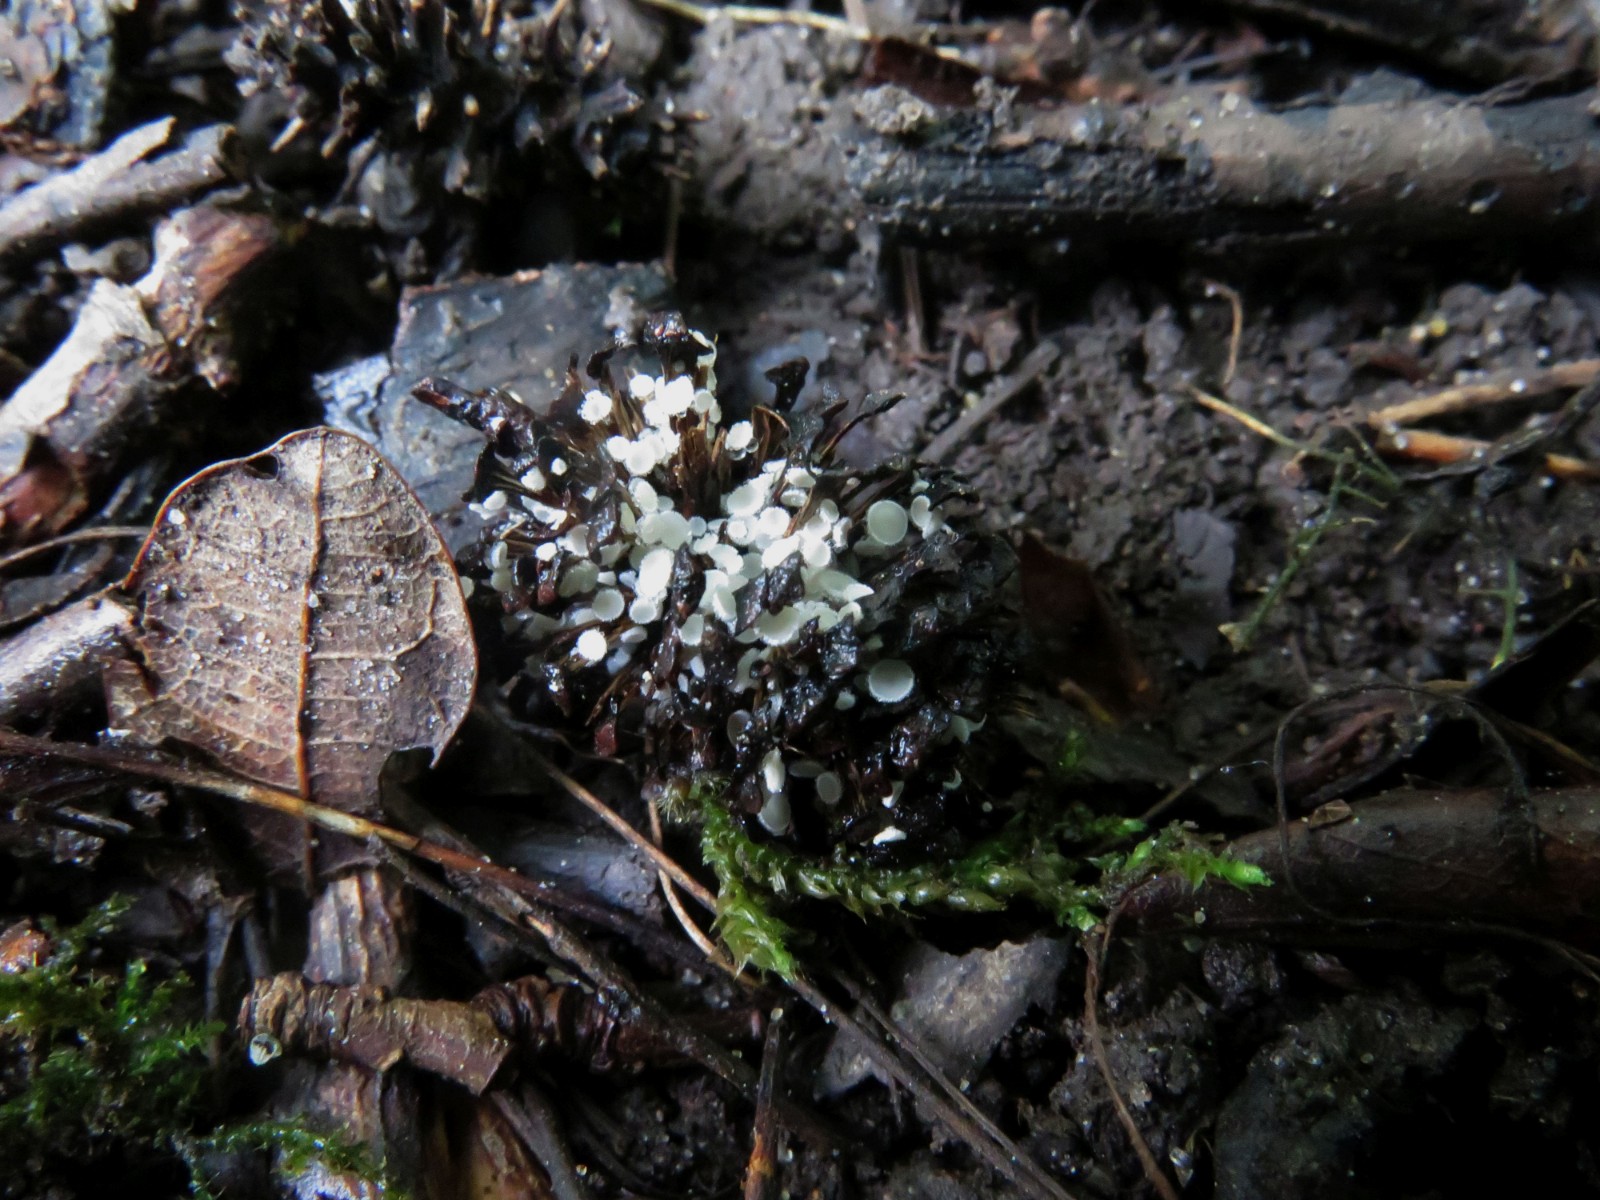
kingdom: Fungi
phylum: Ascomycota
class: Leotiomycetes
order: Helotiales
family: Lachnaceae
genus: Lachnum
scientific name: Lachnum virgineum
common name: jomfru-frynseskive
